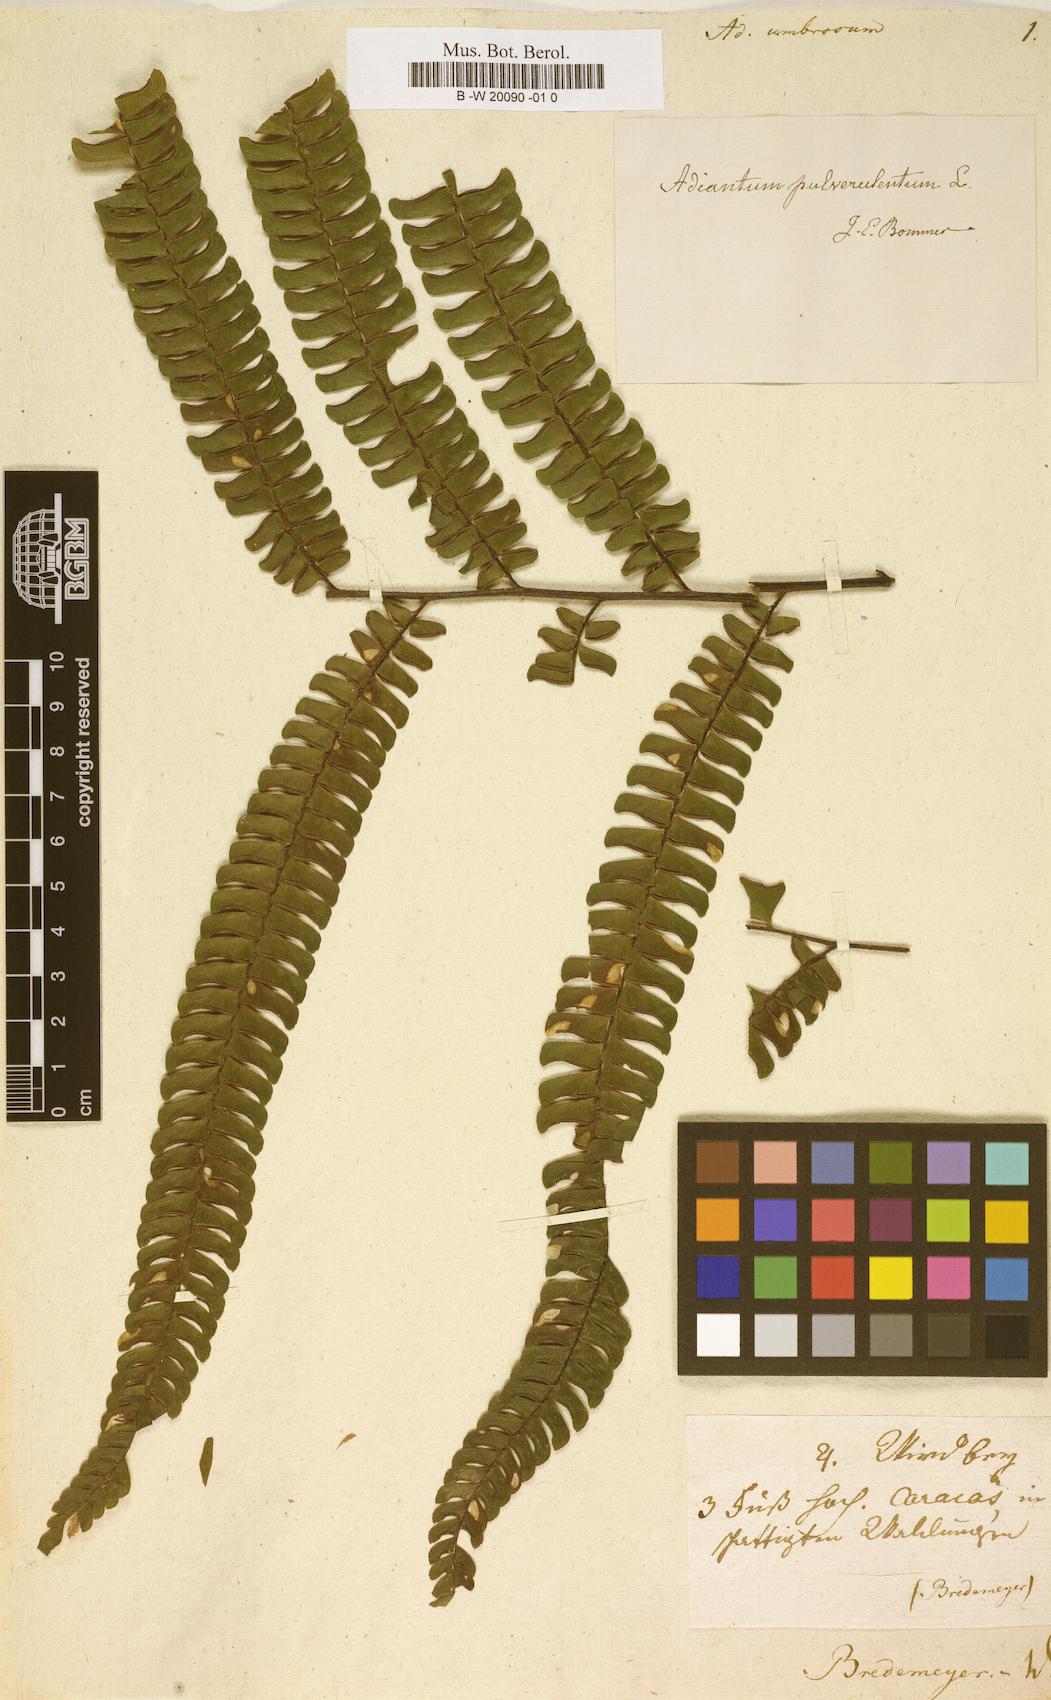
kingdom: Plantae
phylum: Tracheophyta
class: Polypodiopsida
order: Polypodiales
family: Pteridaceae
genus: Adiantum
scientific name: Adiantum pulverulentum
